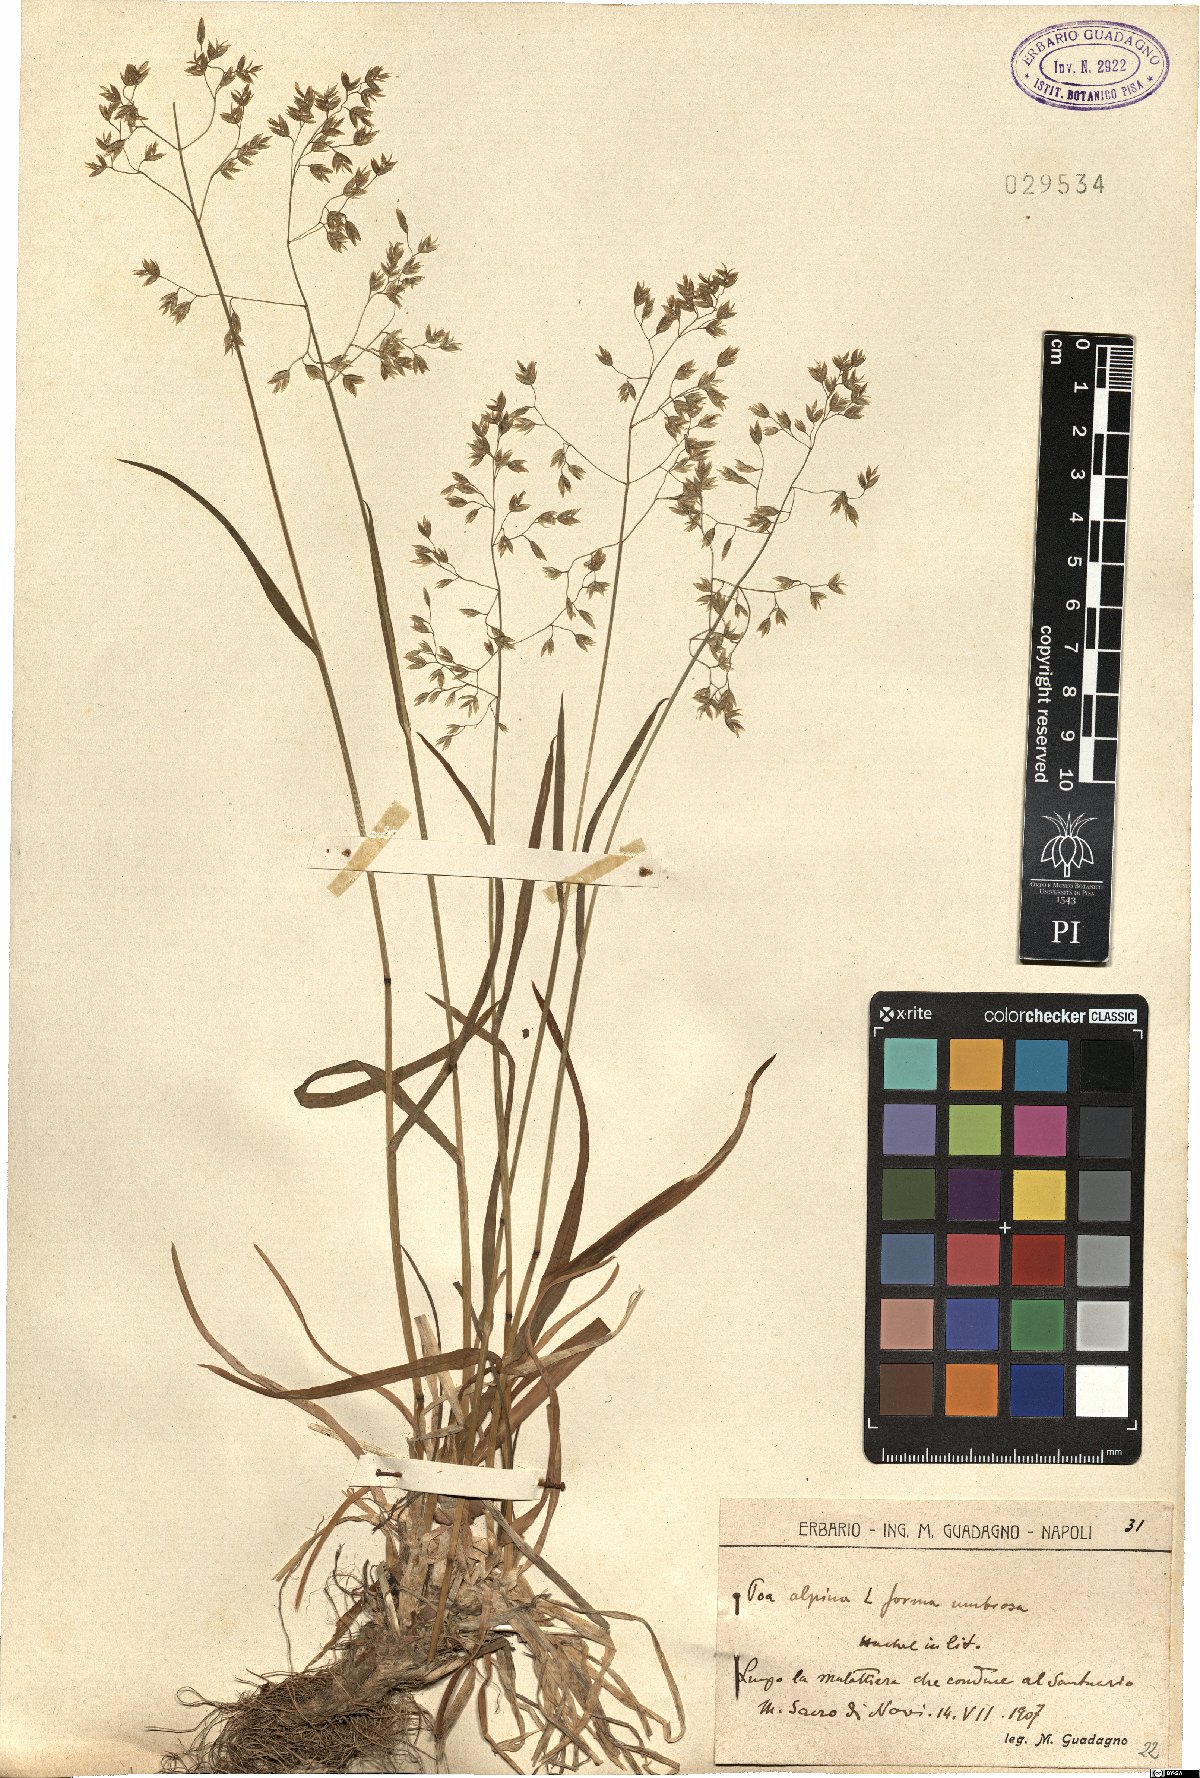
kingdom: Plantae
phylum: Tracheophyta
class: Liliopsida
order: Poales
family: Poaceae
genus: Poa
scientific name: Poa alpina
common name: Alpine bluegrass
